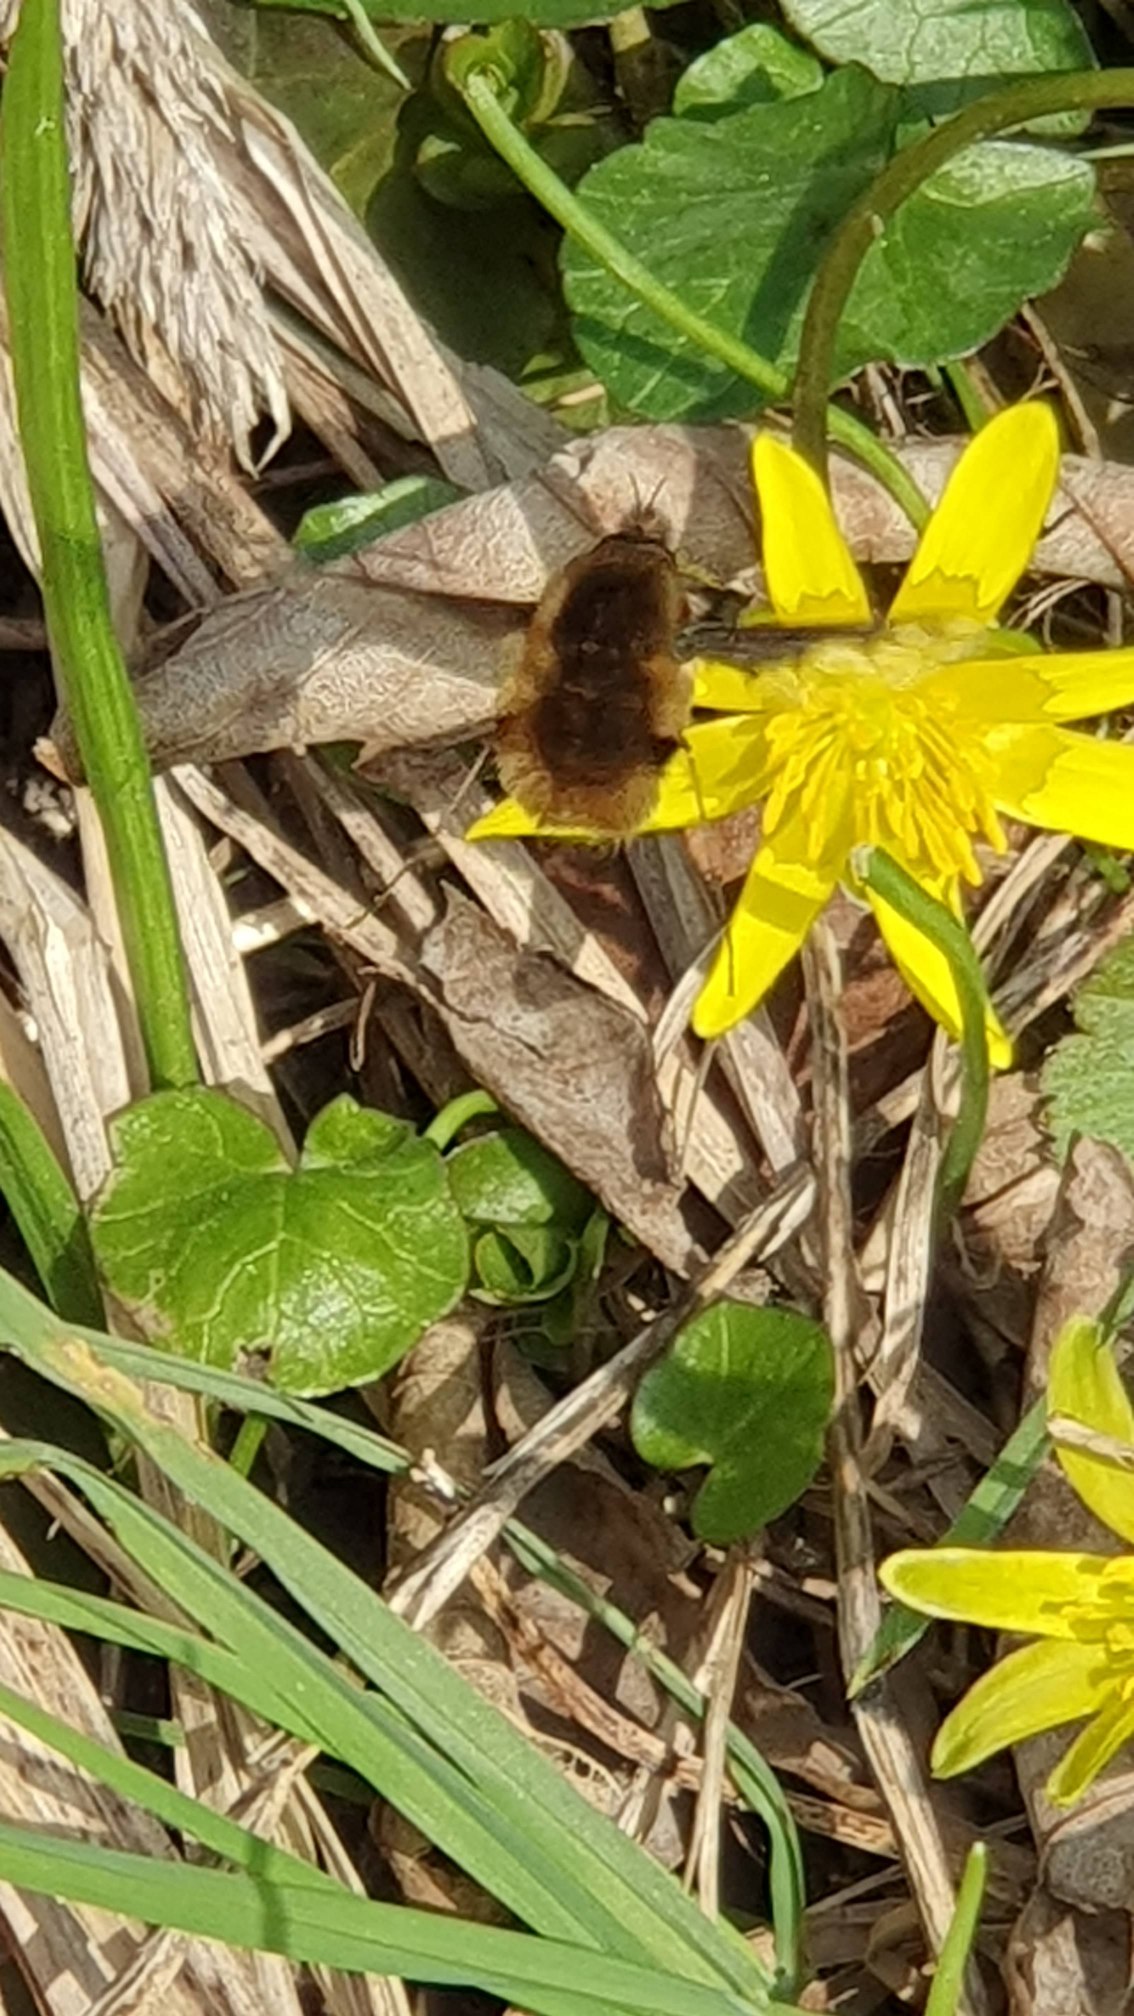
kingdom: Animalia
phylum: Arthropoda
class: Insecta
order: Diptera
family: Bombyliidae
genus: Bombylius
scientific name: Bombylius major
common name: Stor humleflue
